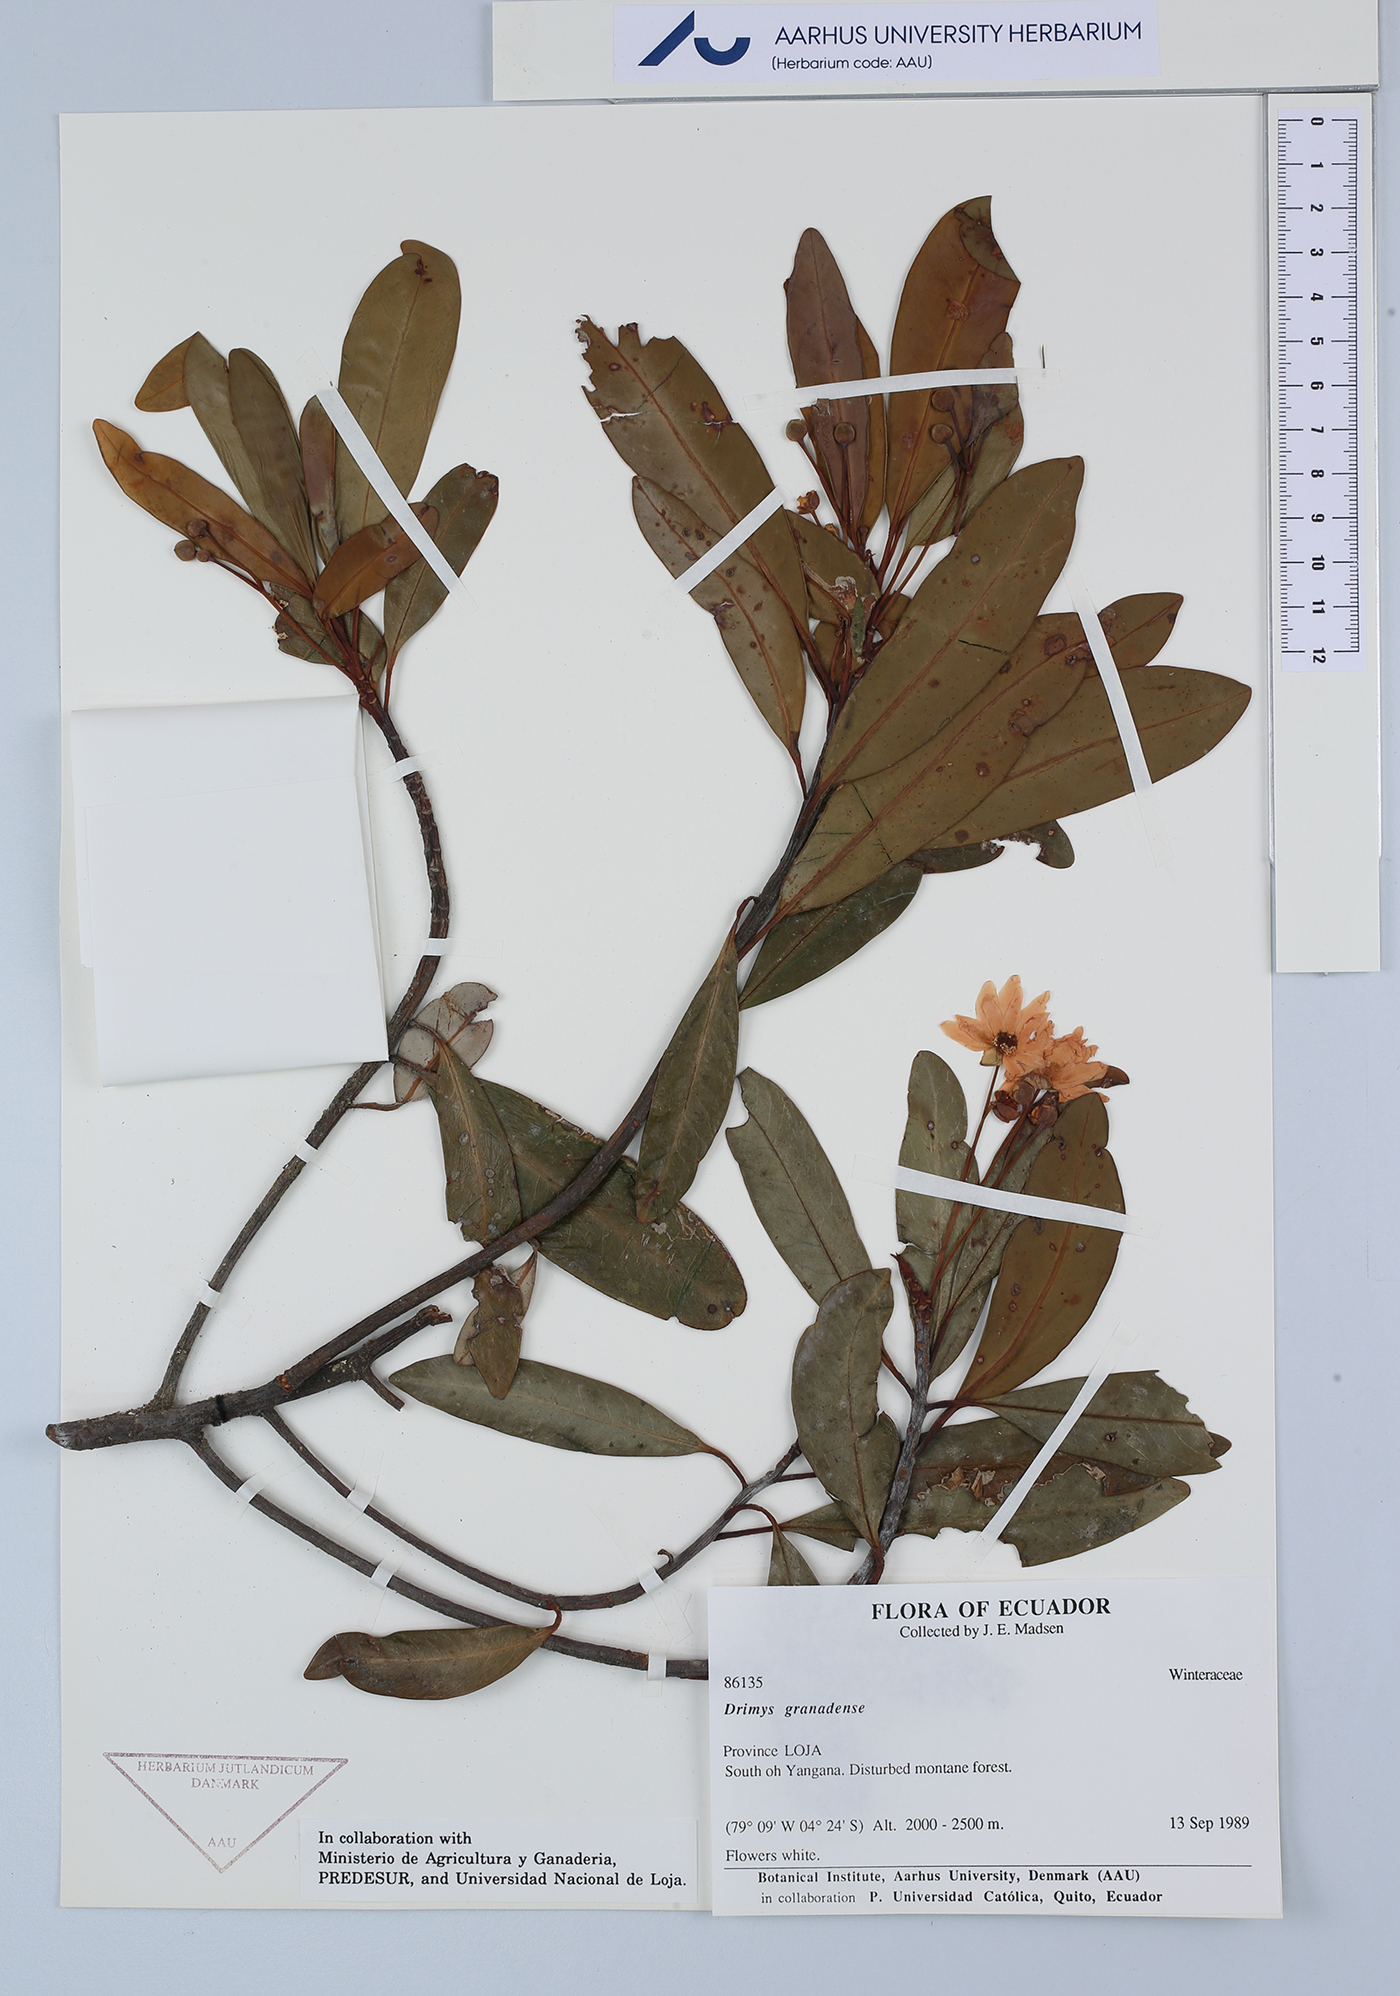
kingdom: Plantae
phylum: Tracheophyta
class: Magnoliopsida
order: Canellales
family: Winteraceae
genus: Drimys
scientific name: Drimys granadensis
